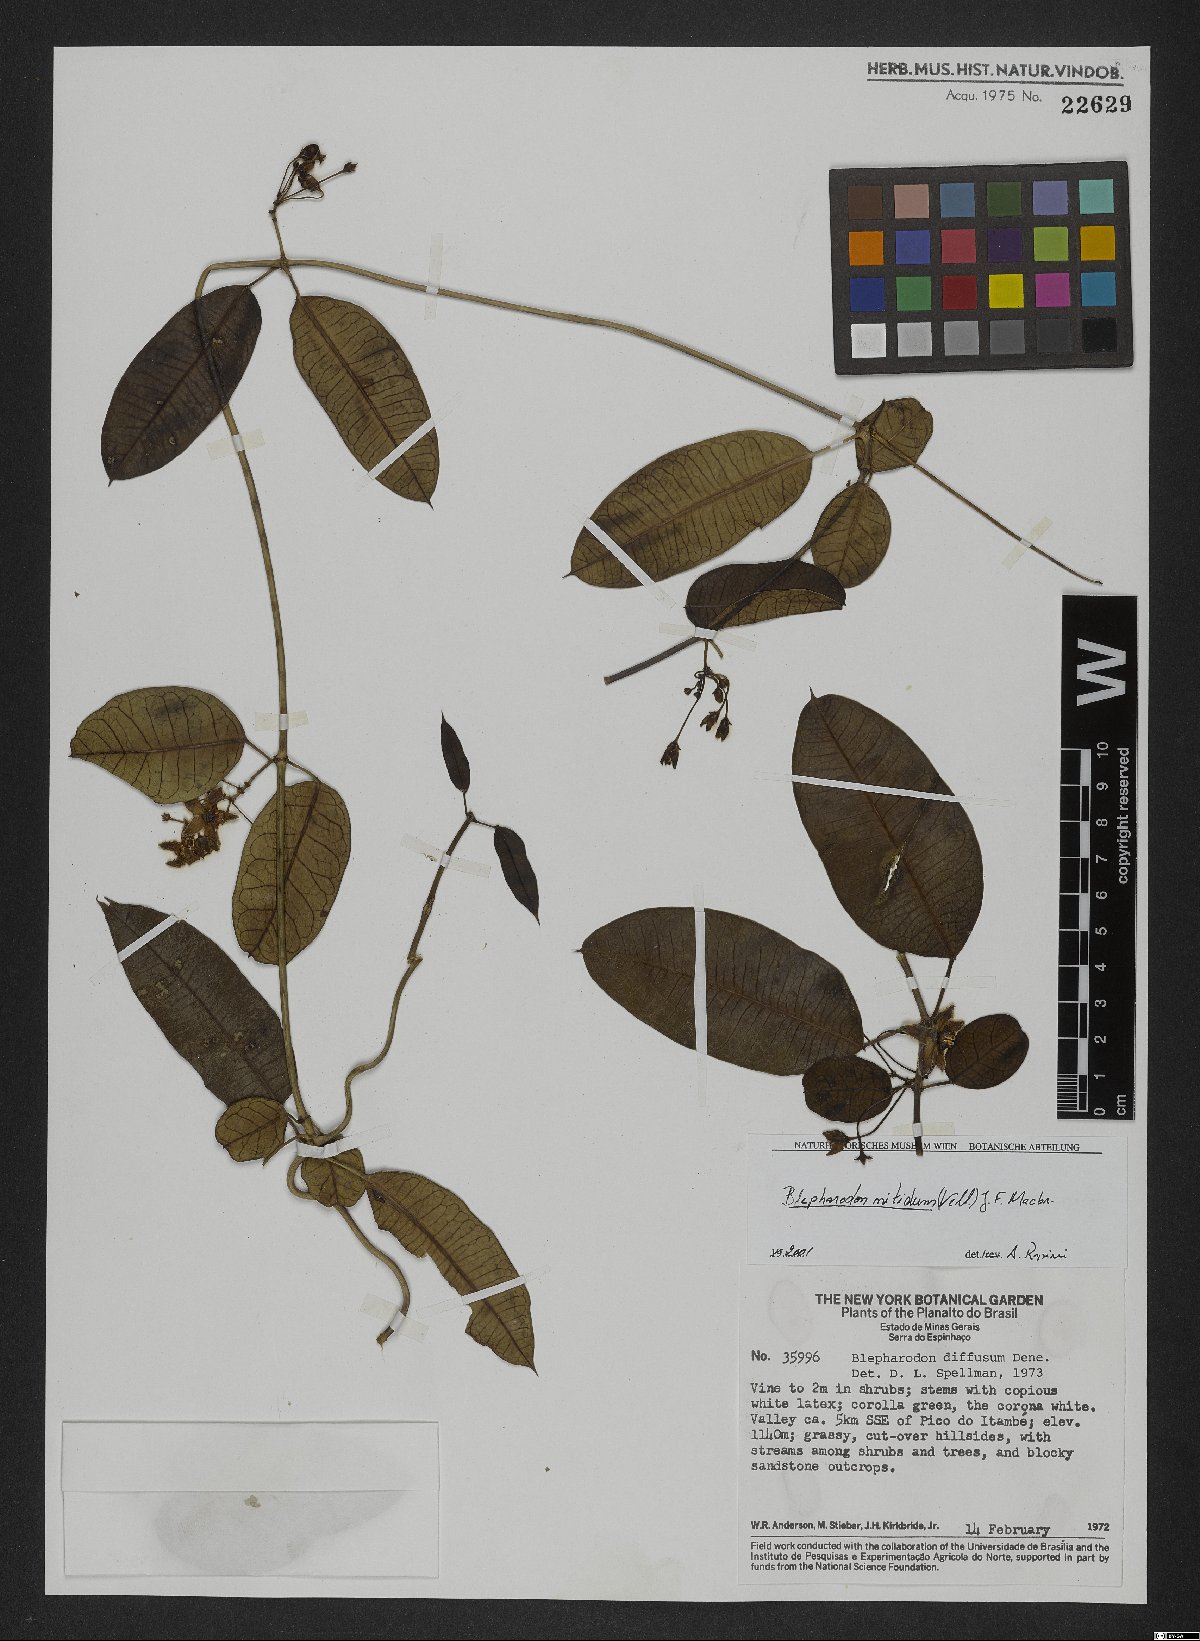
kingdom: Plantae
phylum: Tracheophyta
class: Magnoliopsida
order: Gentianales
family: Apocynaceae
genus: Blepharodon
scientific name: Blepharodon pictum
